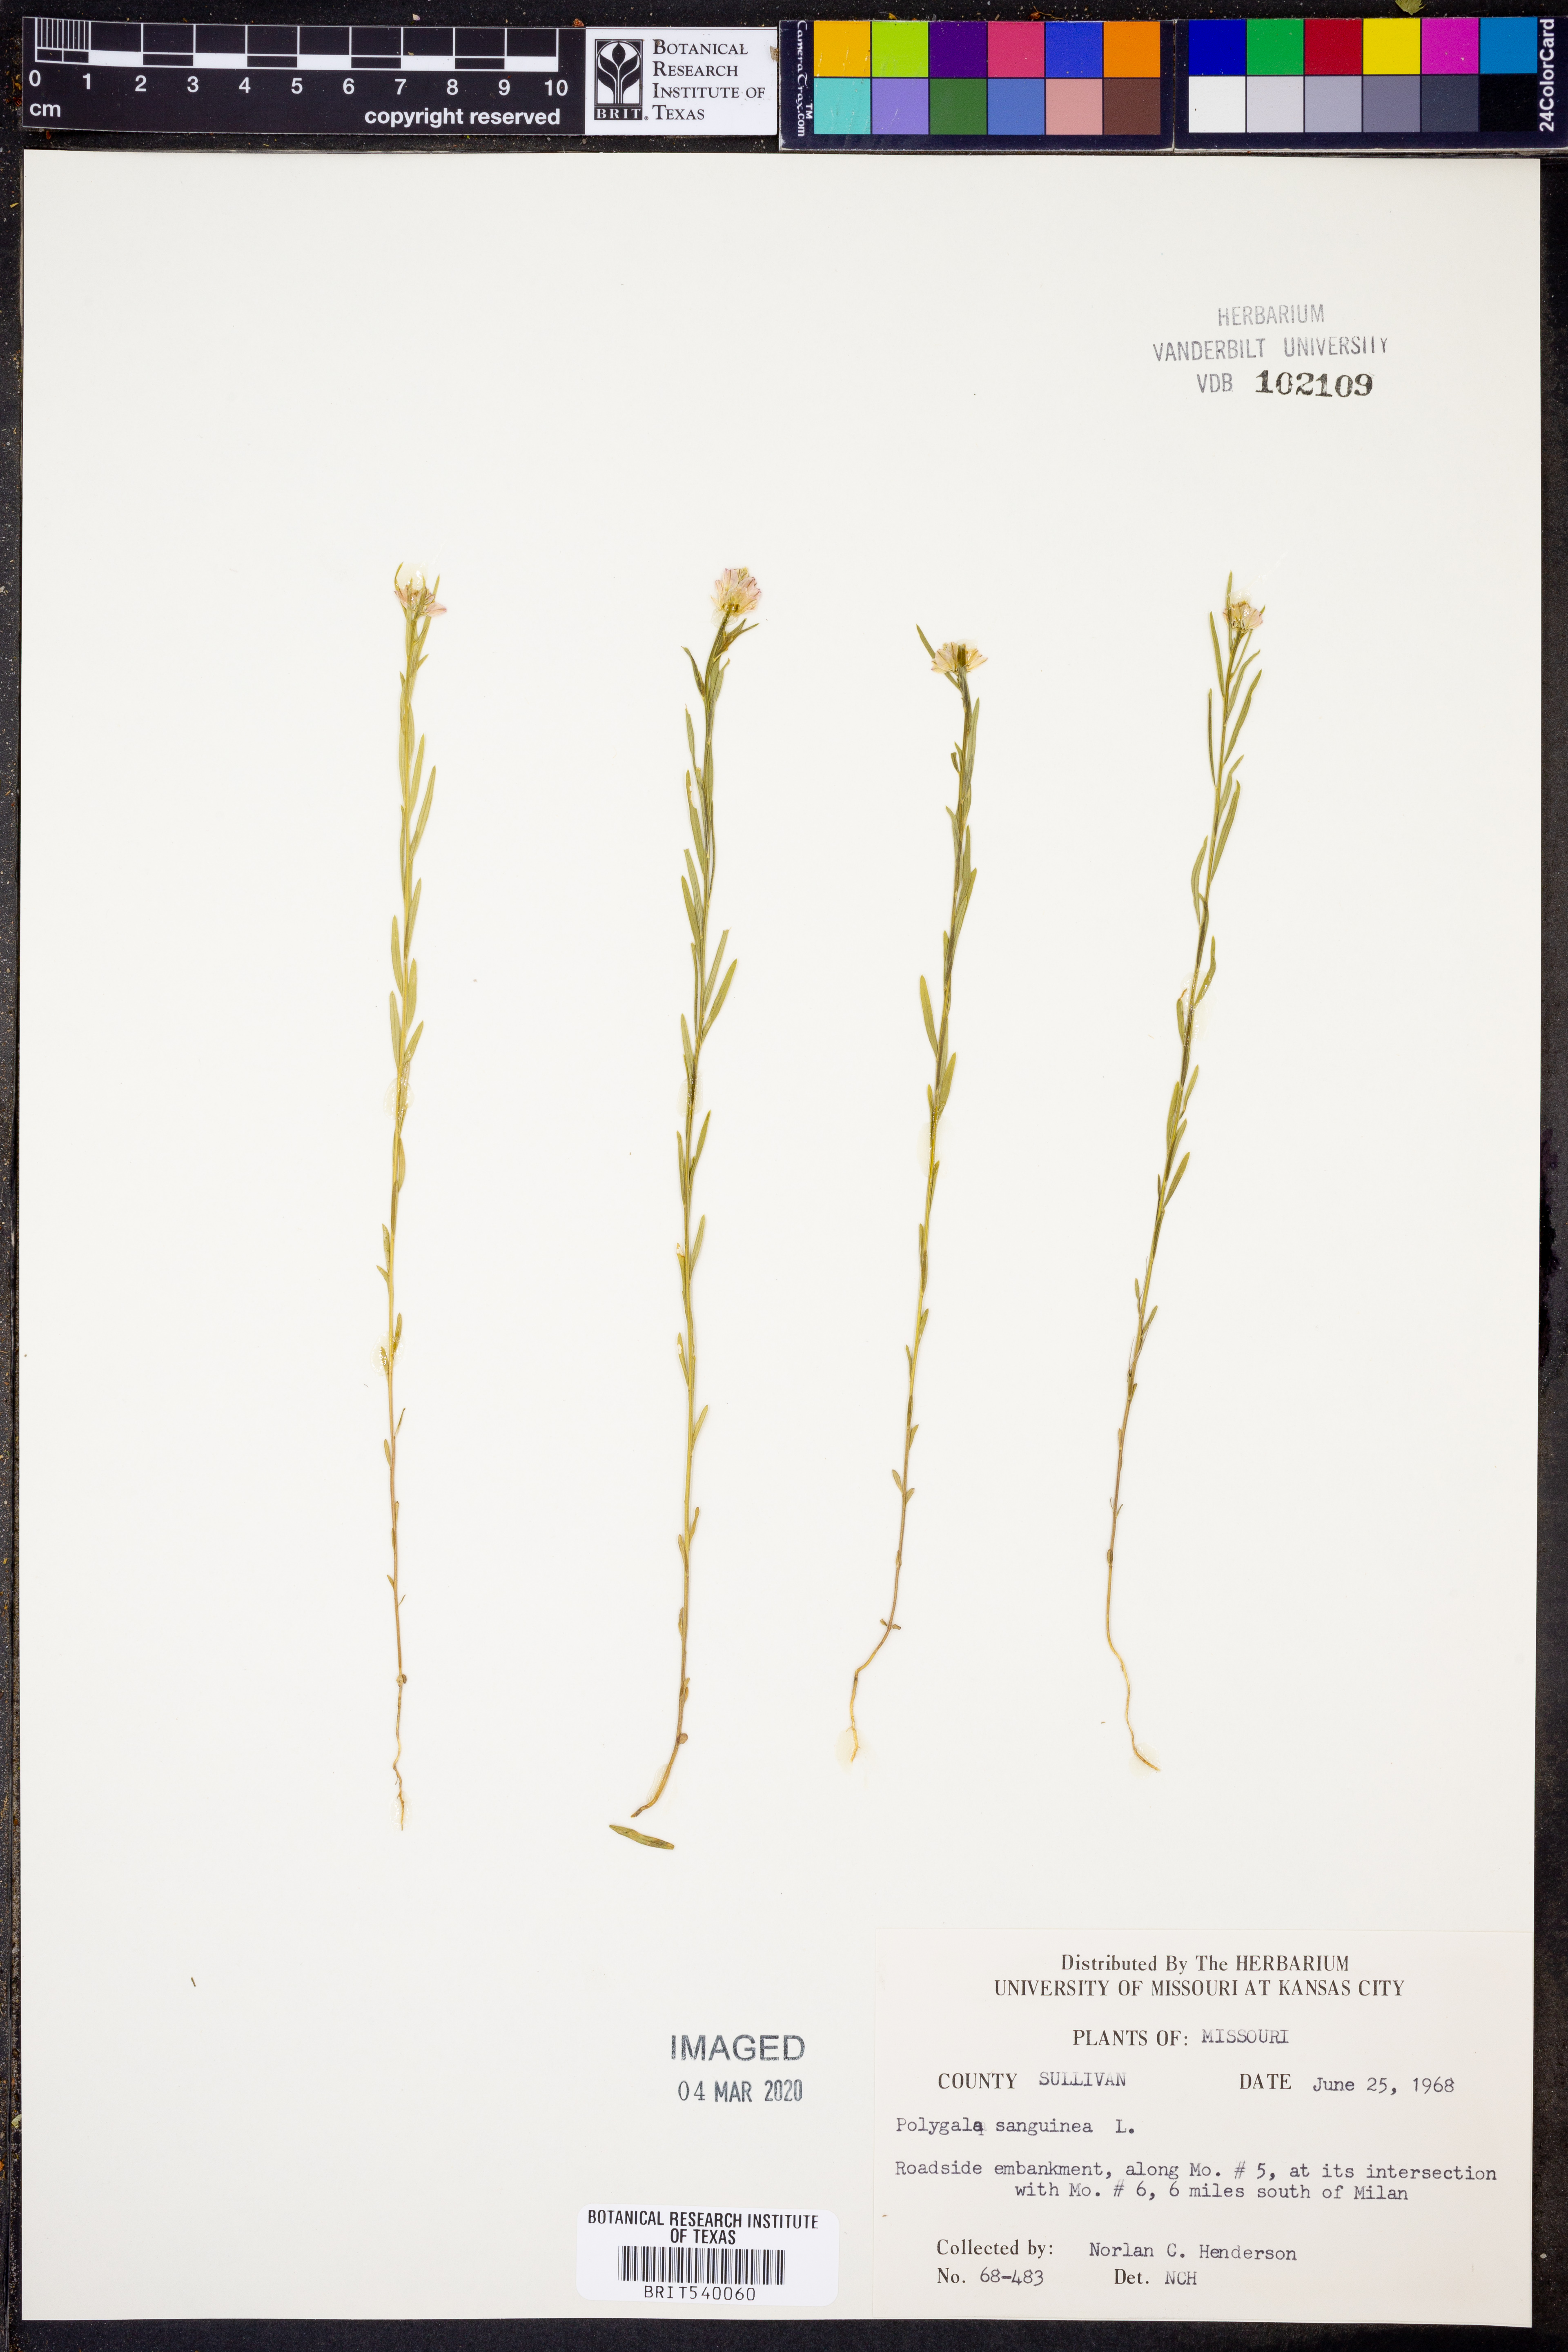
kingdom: Plantae
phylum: Tracheophyta
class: Magnoliopsida
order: Fabales
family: Polygalaceae
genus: Polygala
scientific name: Polygala sanguinea
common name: Blood milkwort
